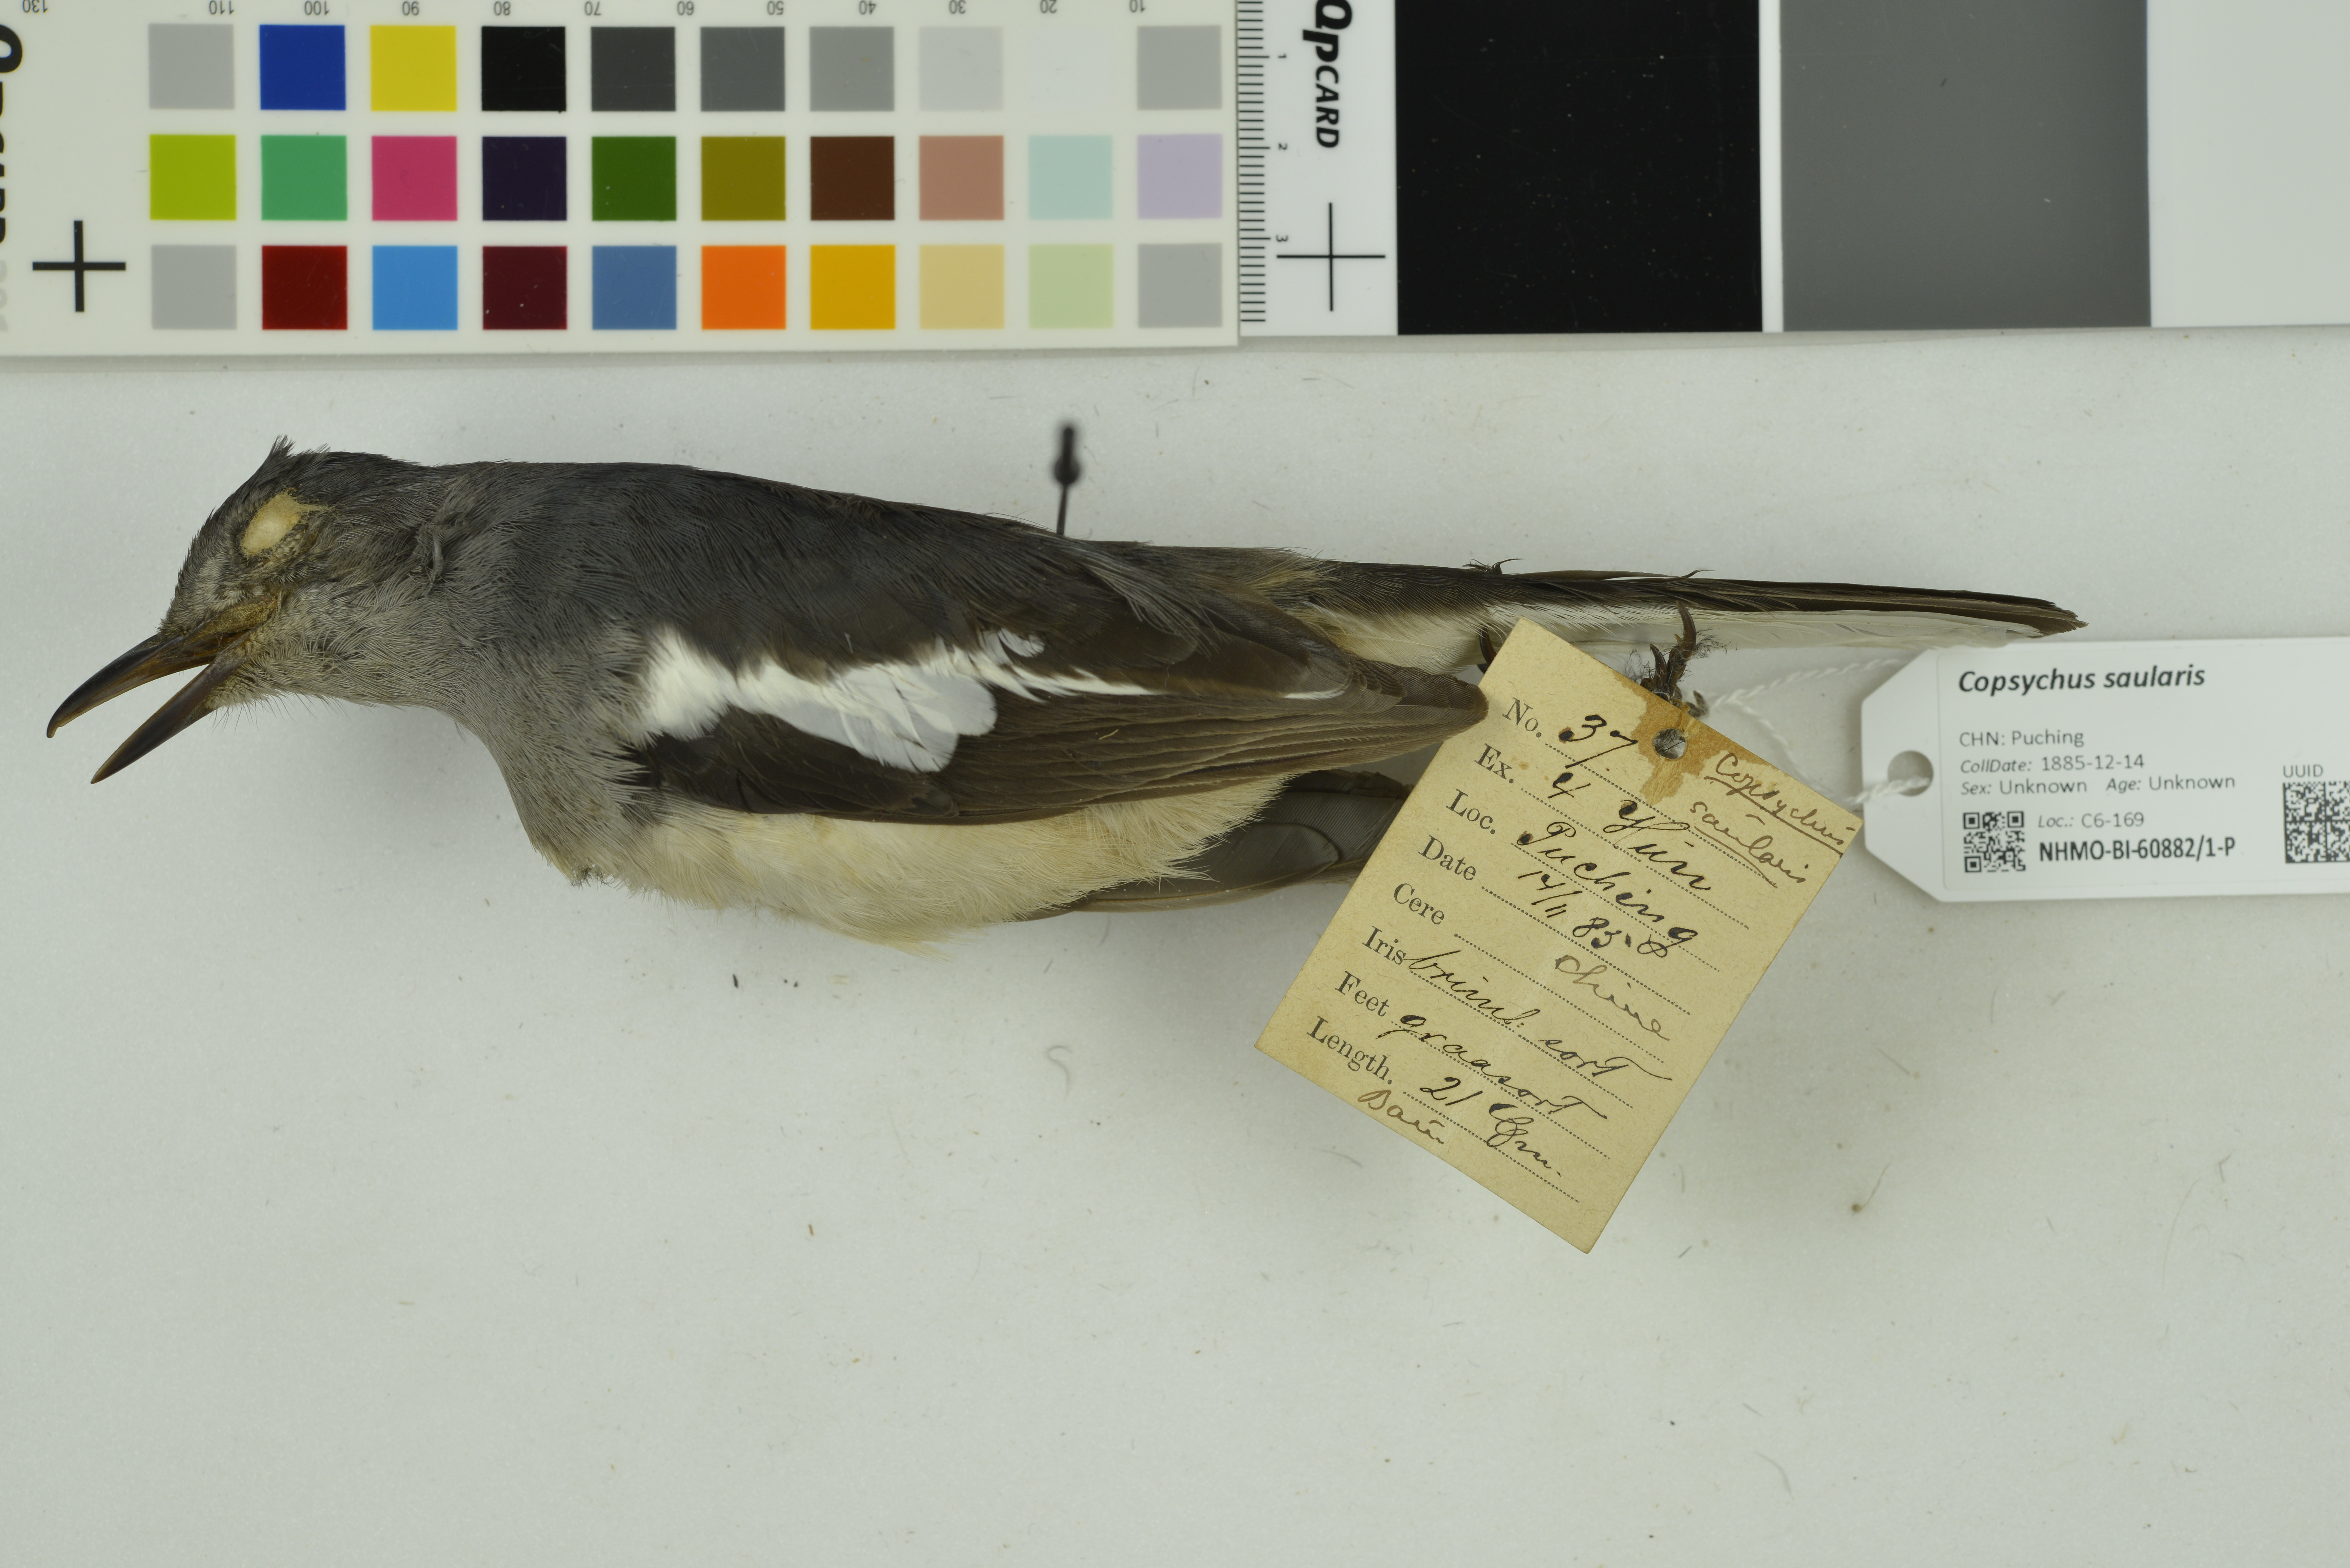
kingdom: Animalia
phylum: Chordata
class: Aves
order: Passeriformes
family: Muscicapidae
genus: Copsychus
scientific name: Copsychus saularis
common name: Oriental magpie-robin
